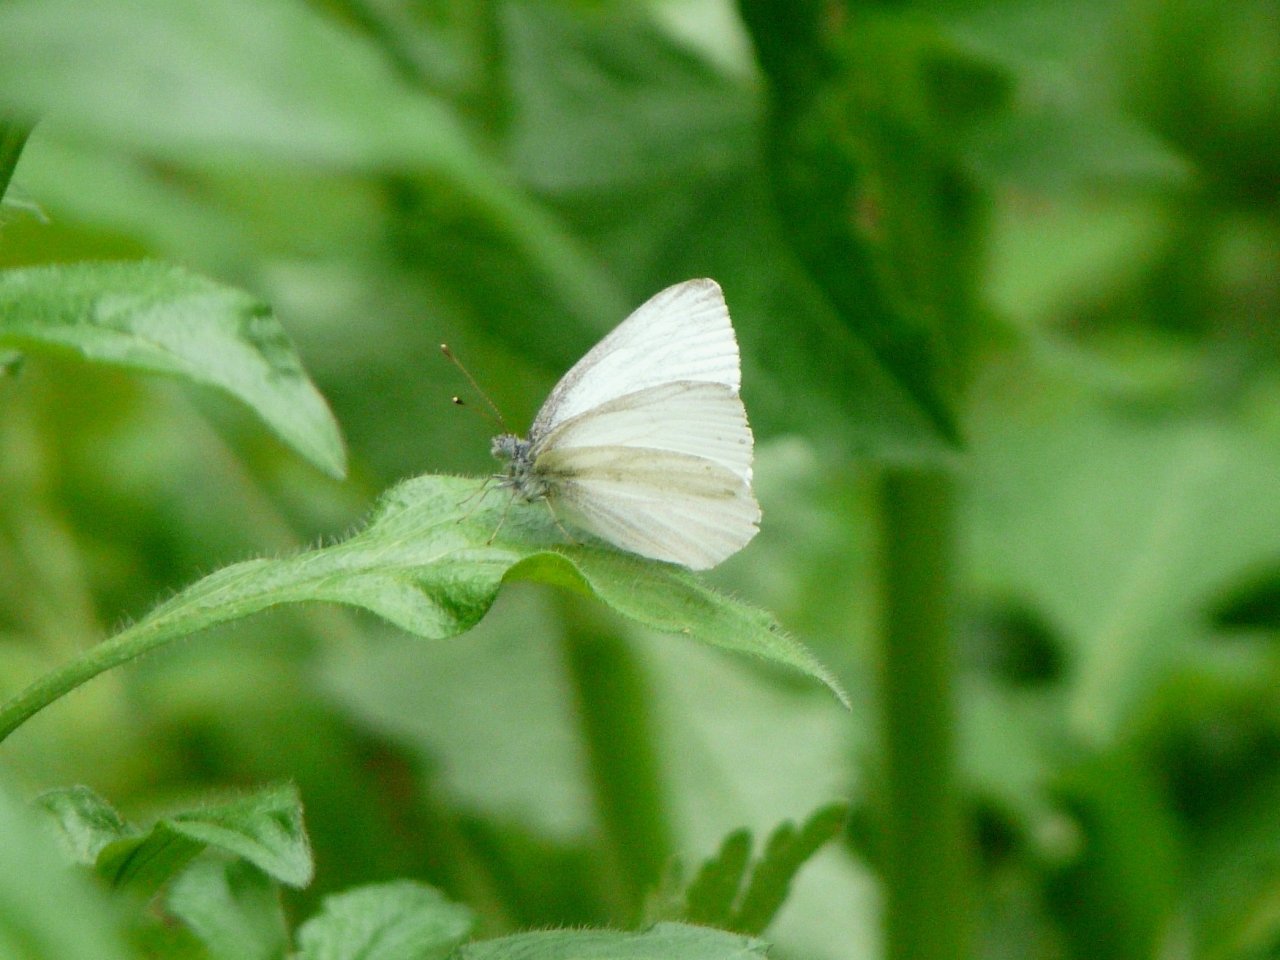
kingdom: Animalia
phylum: Arthropoda
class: Insecta
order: Lepidoptera
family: Pieridae
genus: Pieris
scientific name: Pieris virginiensis
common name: West Virginia White
